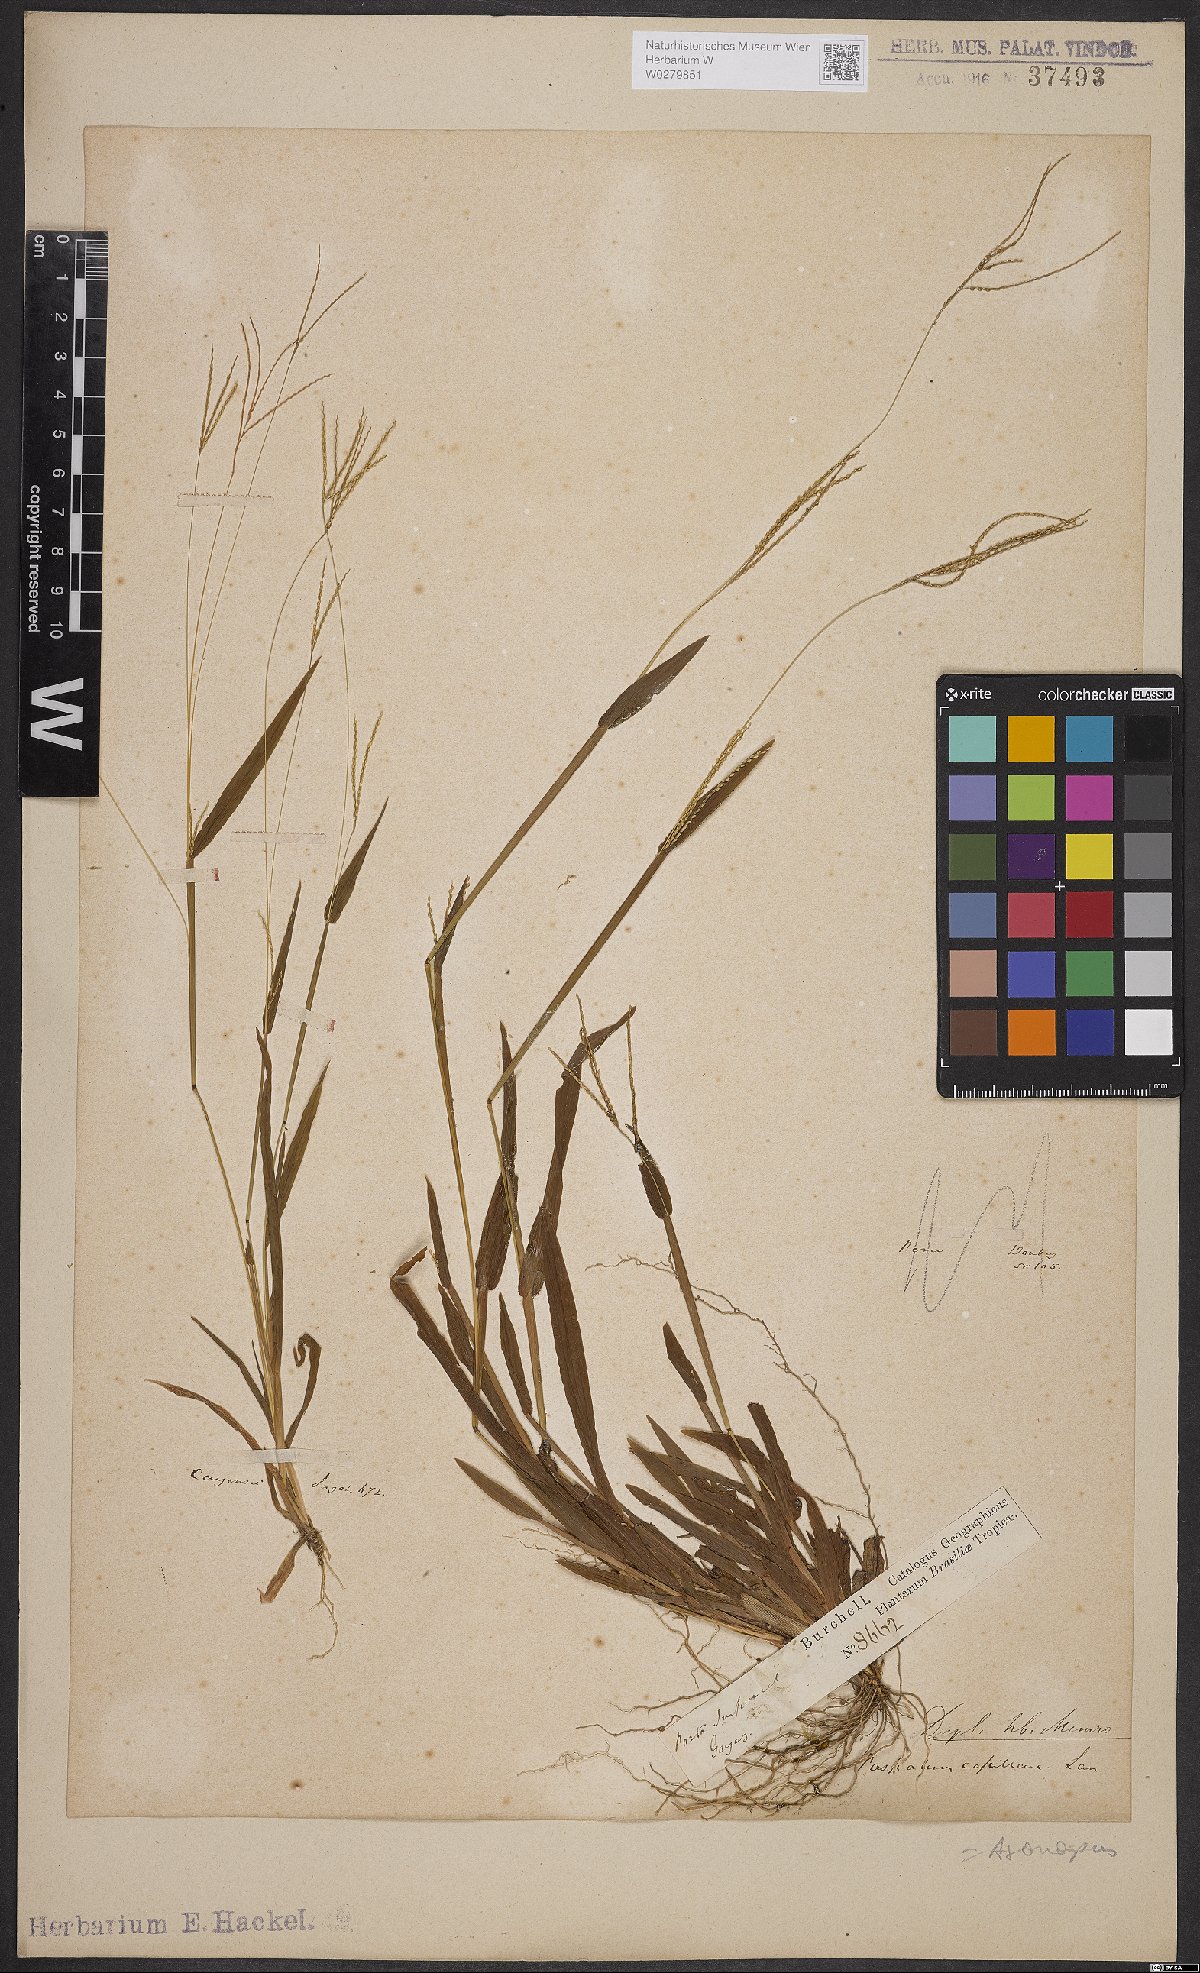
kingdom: Plantae
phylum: Tracheophyta
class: Liliopsida
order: Poales
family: Poaceae
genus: Axonopus
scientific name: Axonopus capillaris
